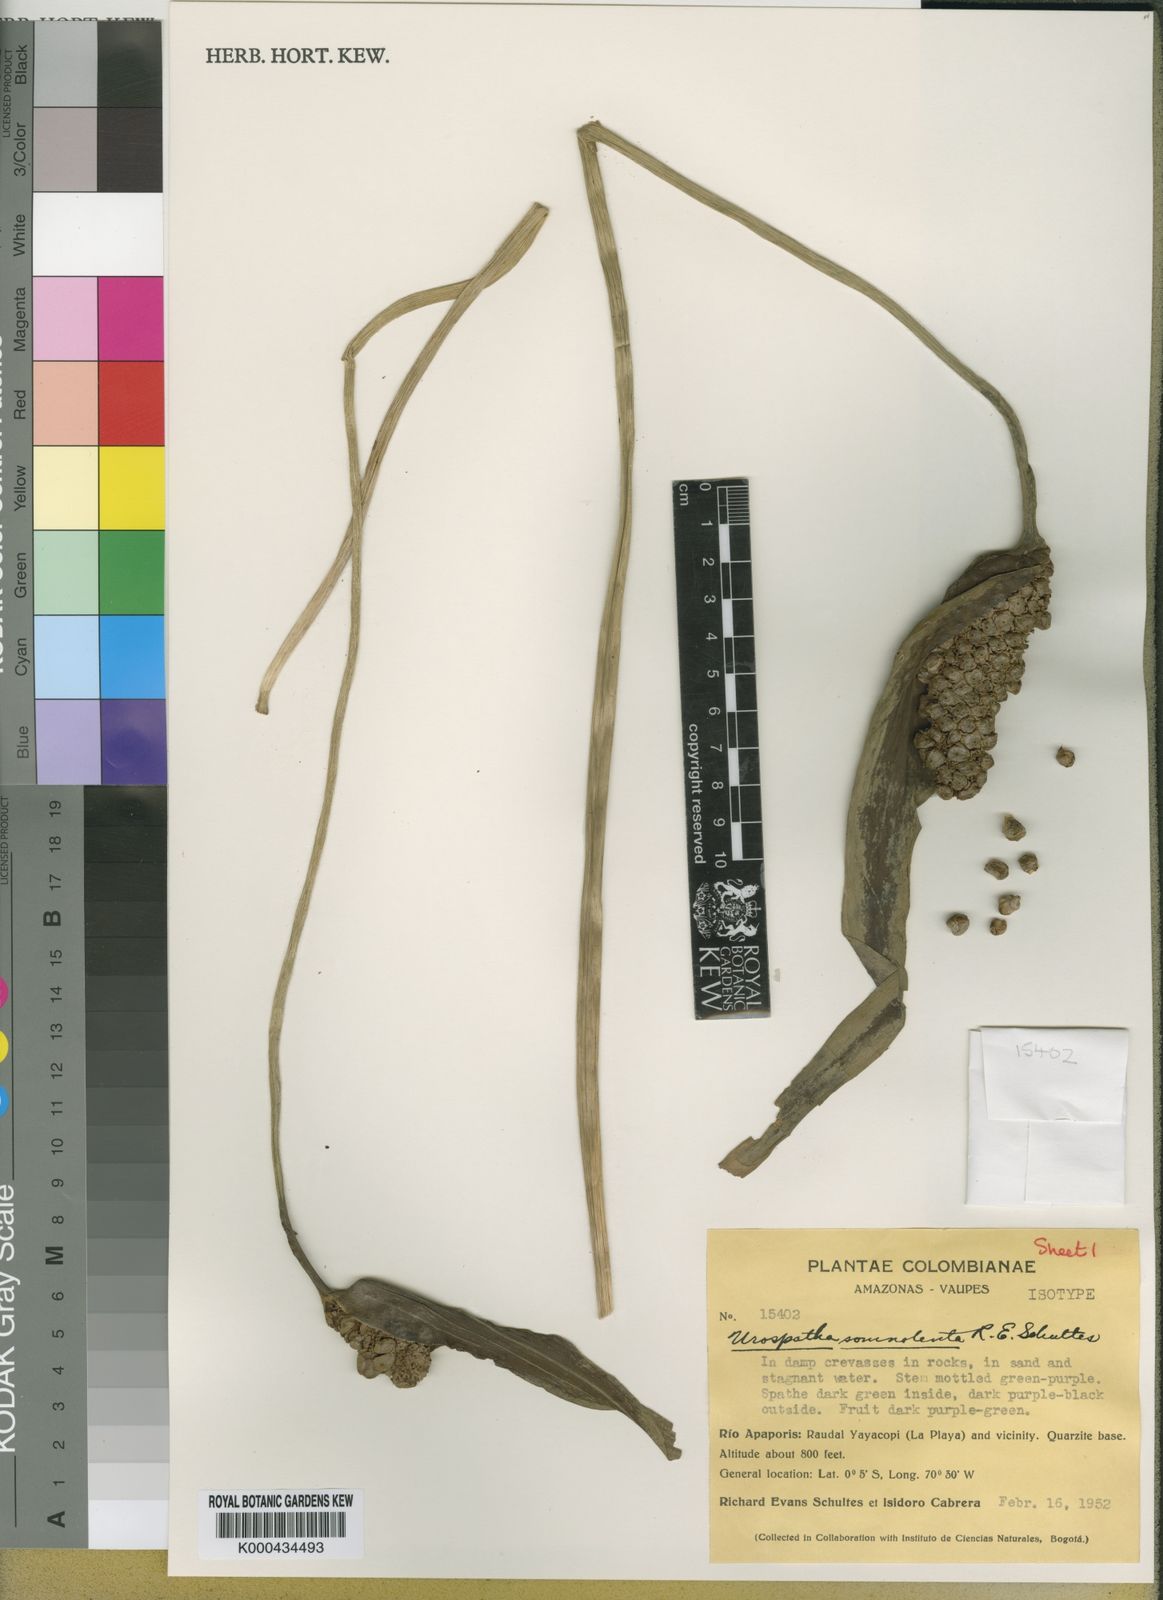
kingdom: Plantae
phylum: Tracheophyta
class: Liliopsida
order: Alismatales
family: Araceae
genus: Urospatha
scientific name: Urospatha somnolenta
